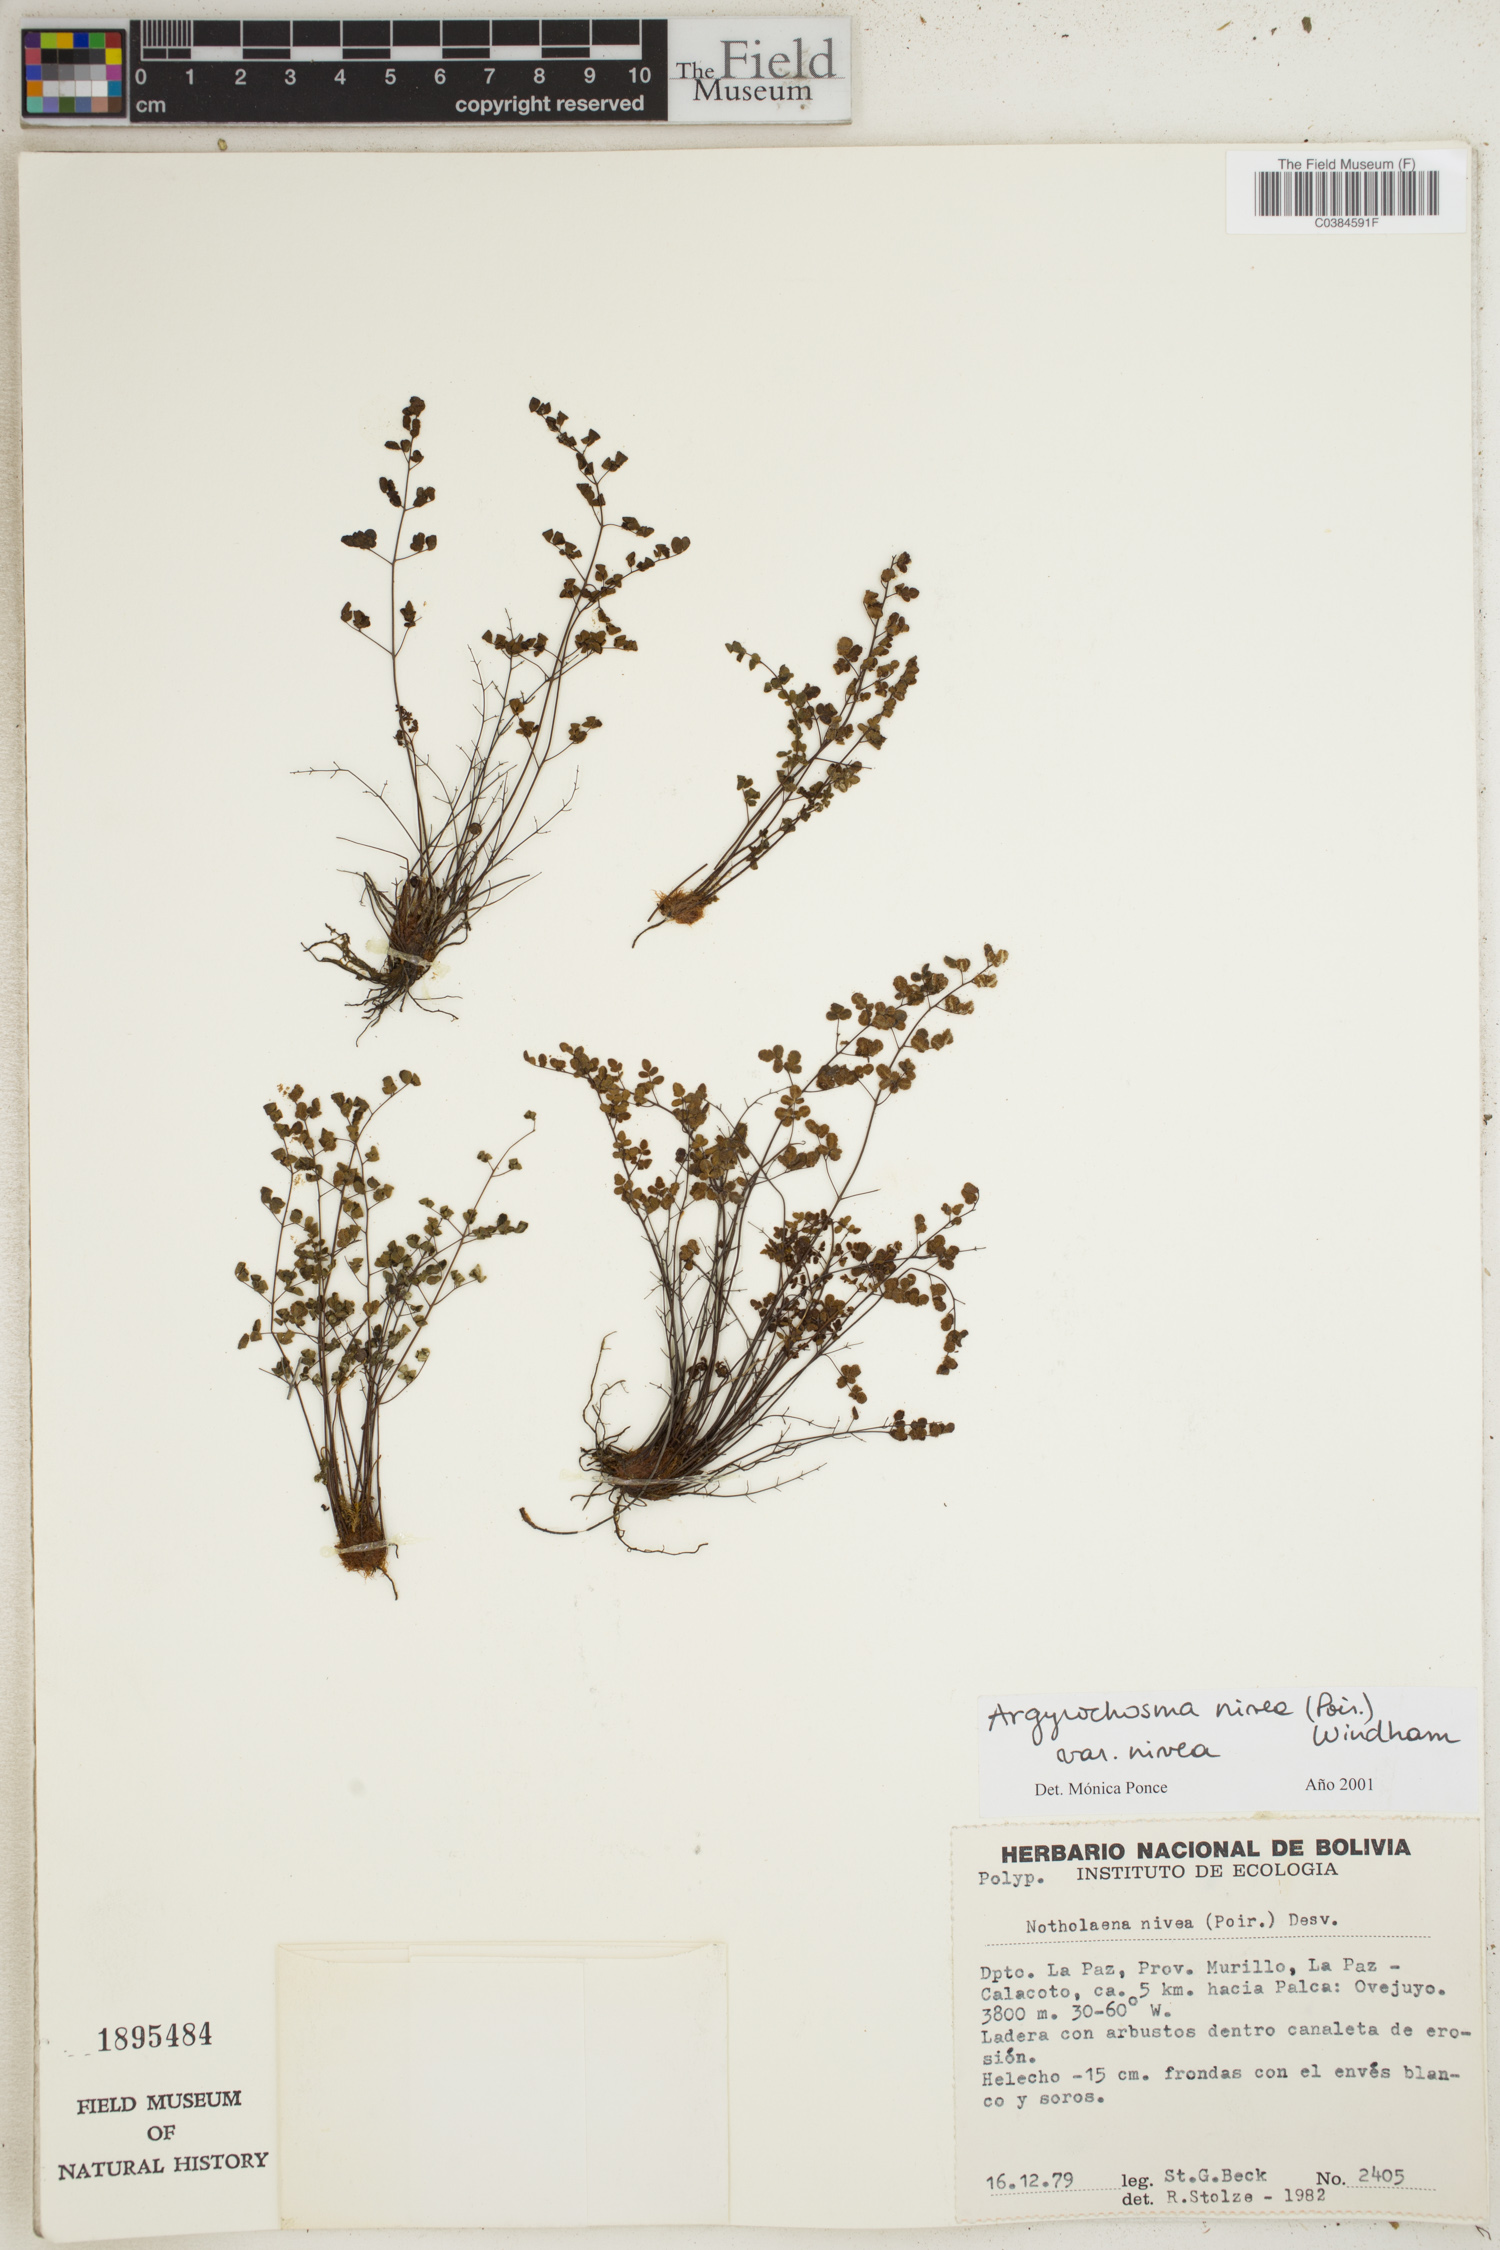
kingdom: Plantae
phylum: Tracheophyta
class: Polypodiopsida
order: Polypodiales
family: Pteridaceae
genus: Argyrochosma
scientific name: Argyrochosma nivea
